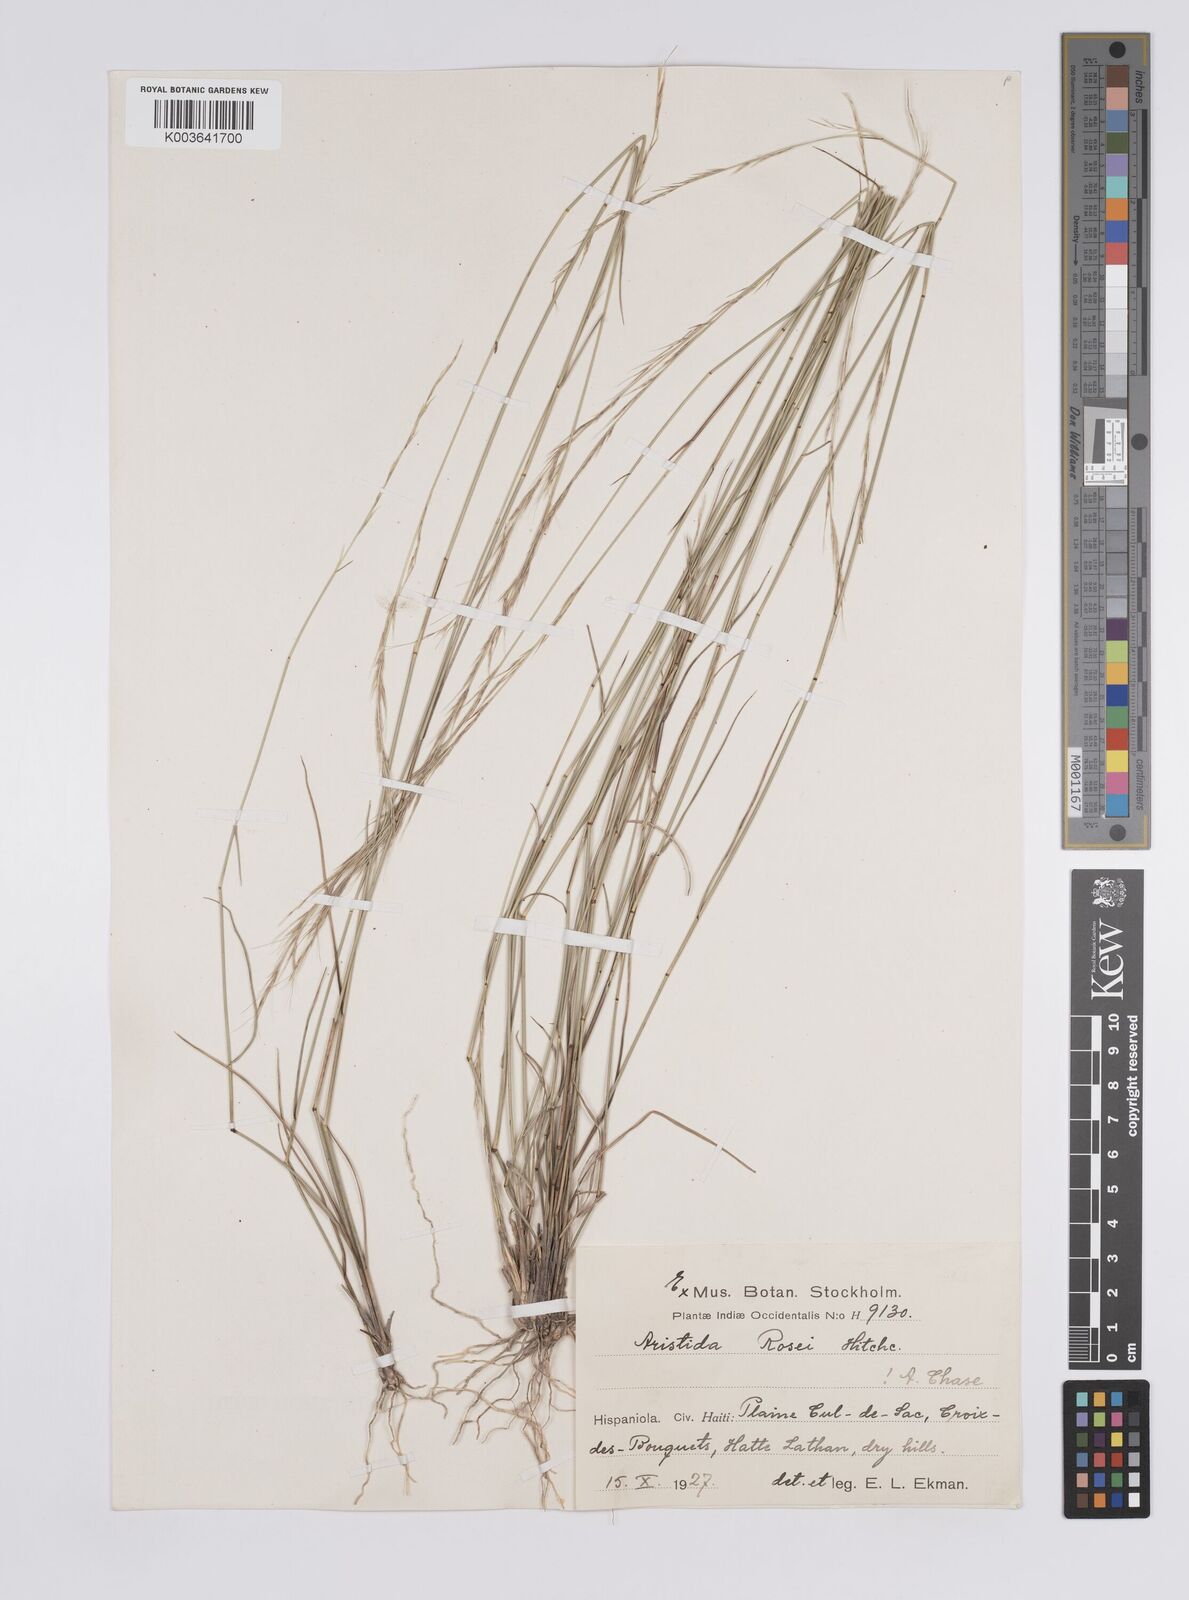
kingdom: Plantae
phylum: Tracheophyta
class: Liliopsida
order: Poales
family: Poaceae
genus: Aristida
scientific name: Aristida rosei
